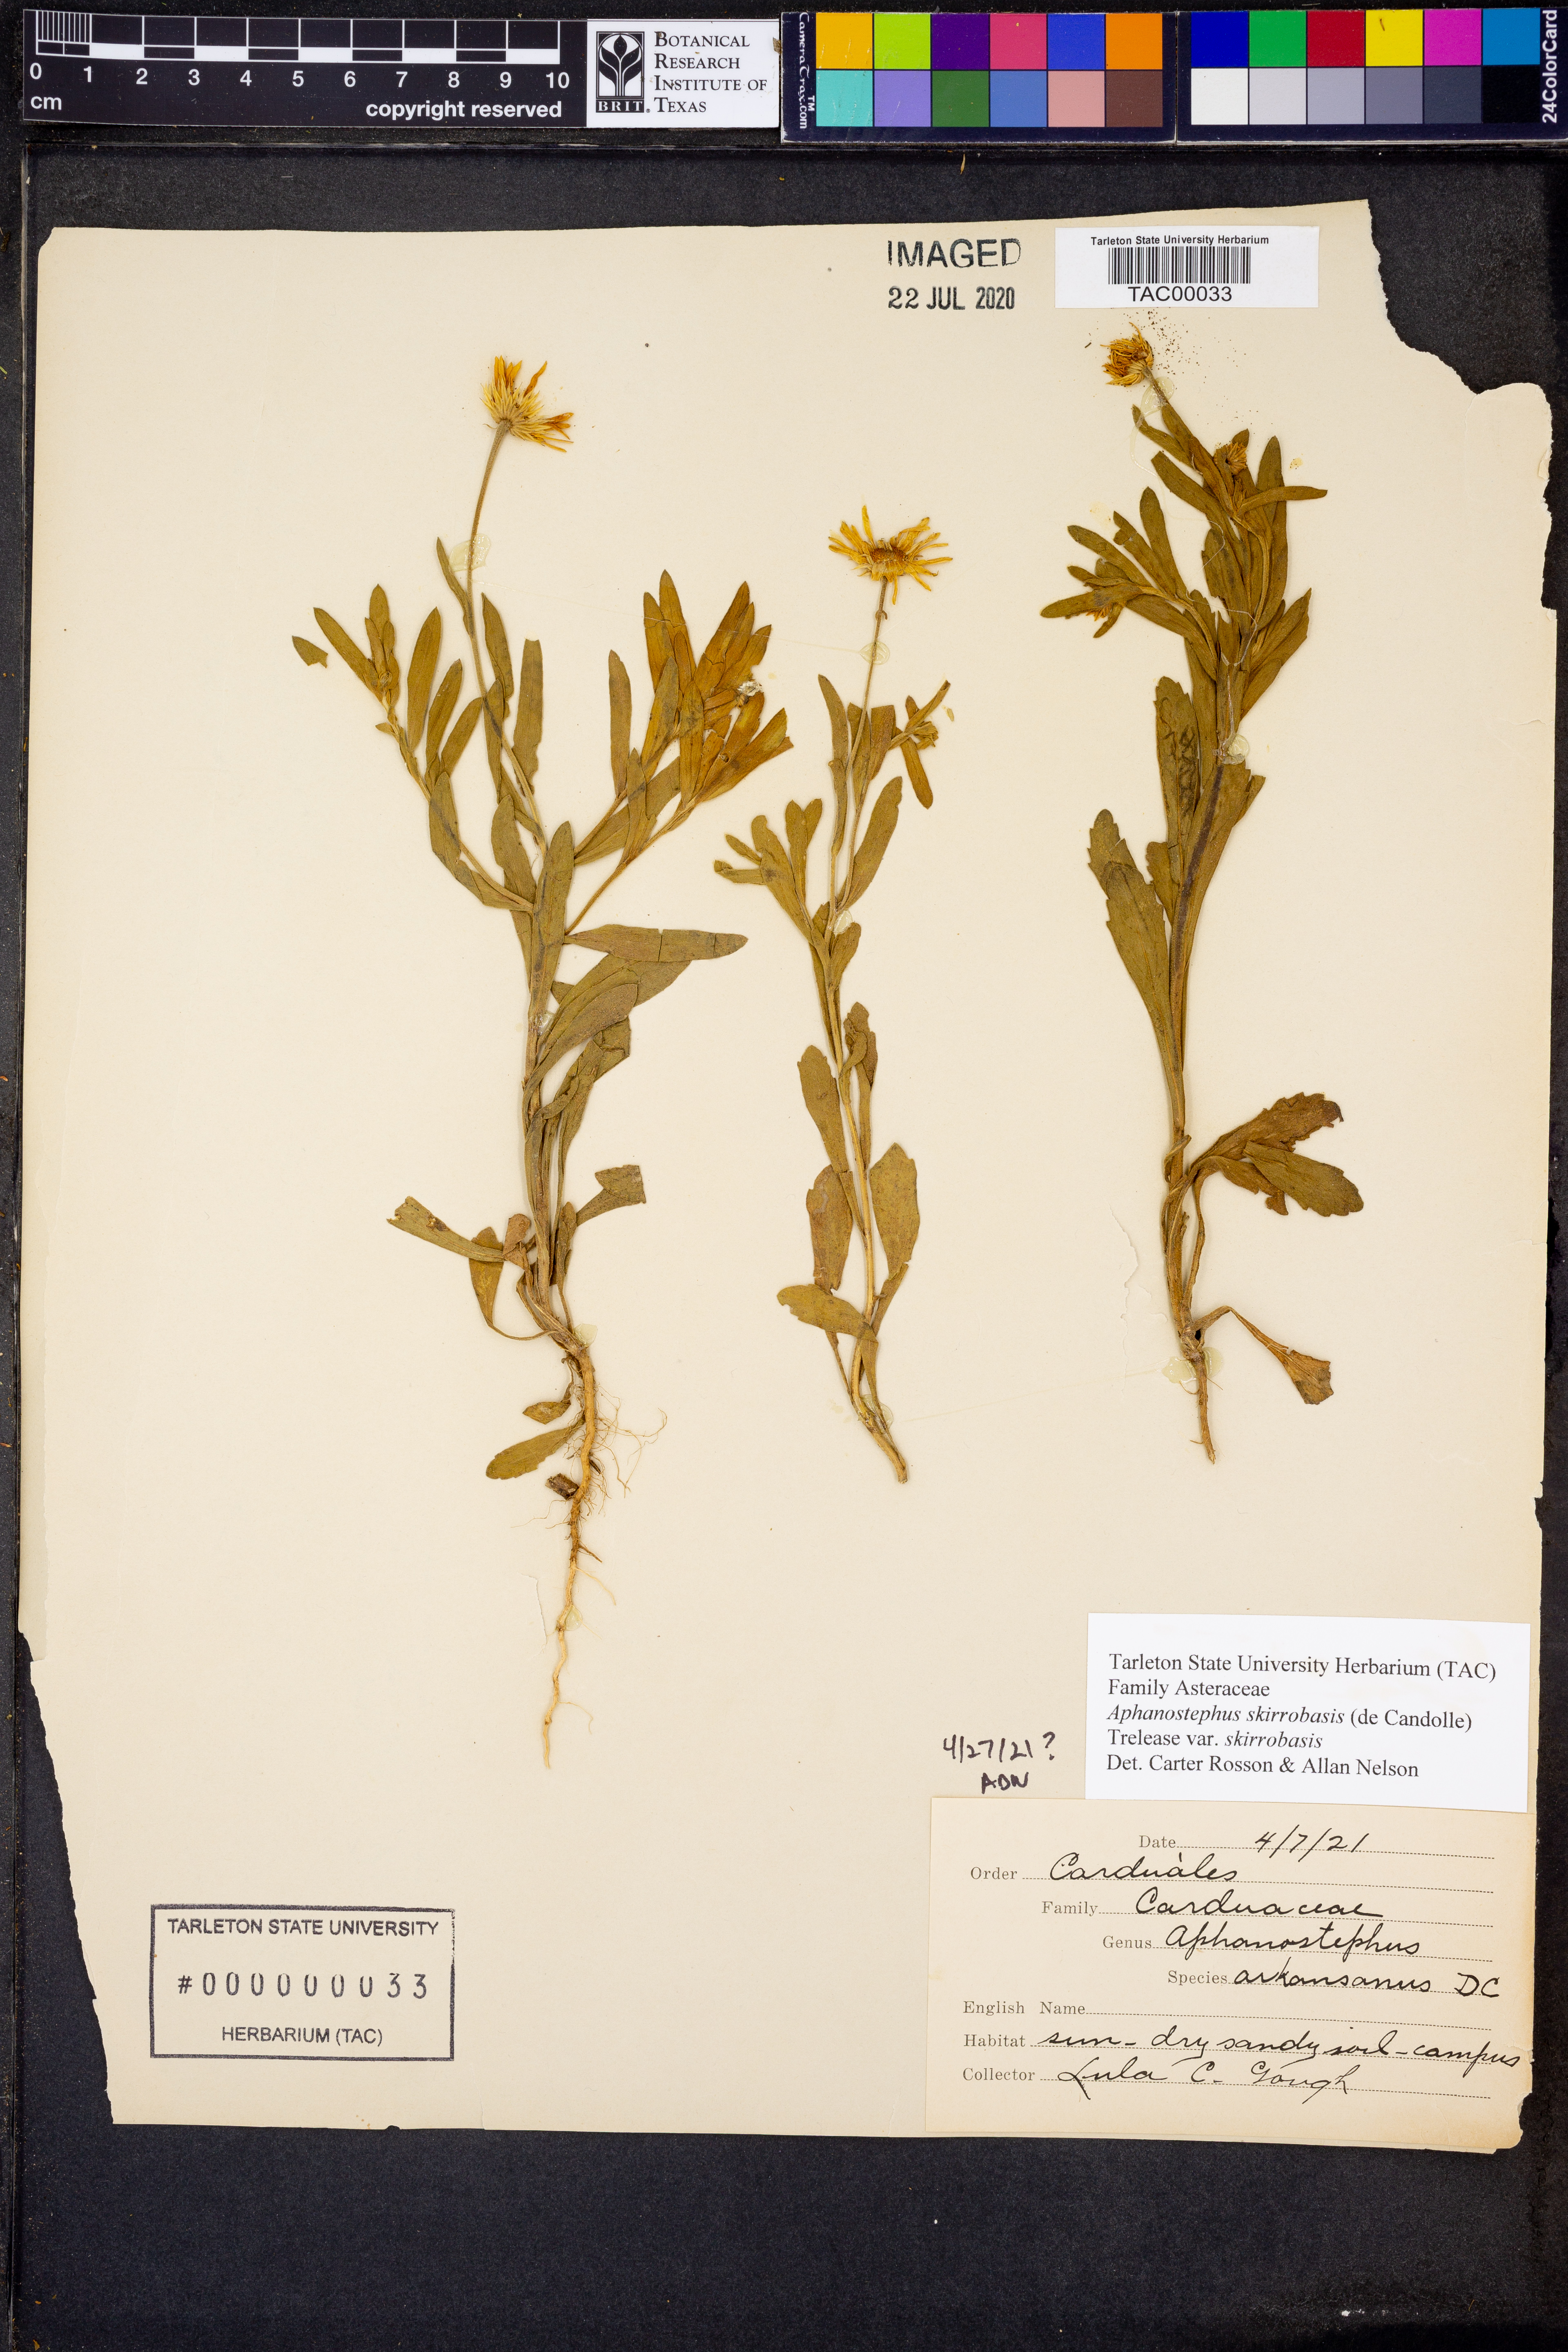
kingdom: Plantae
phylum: Tracheophyta
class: Magnoliopsida
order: Asterales
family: Asteraceae
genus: Aphanostephus
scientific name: Aphanostephus skirrhobasis
